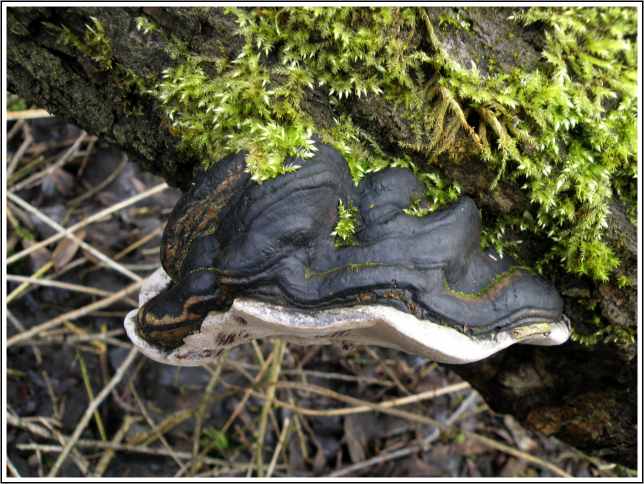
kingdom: Fungi
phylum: Basidiomycota
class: Agaricomycetes
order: Hymenochaetales
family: Hymenochaetaceae
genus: Phellinus
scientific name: Phellinus igniarius
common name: almindelig ildporesvamp
